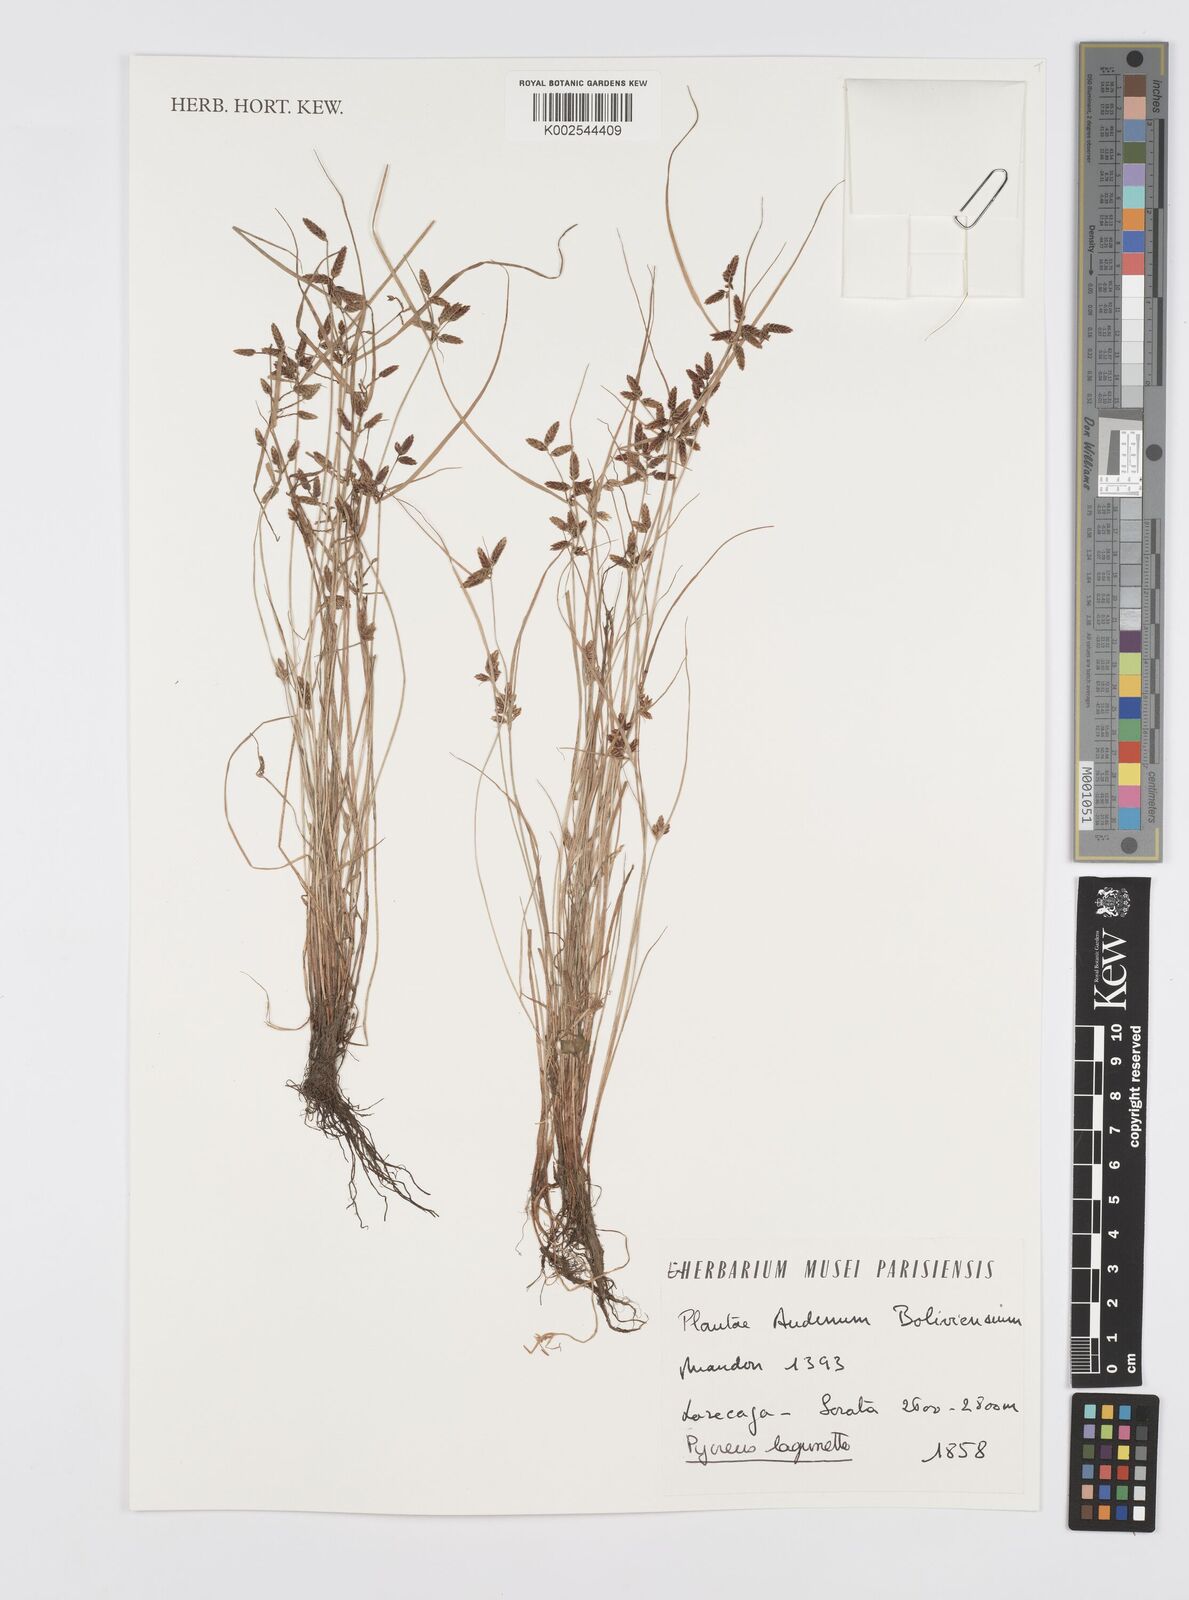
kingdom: Plantae
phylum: Tracheophyta
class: Liliopsida
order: Poales
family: Cyperaceae
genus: Cyperus
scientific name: Cyperus bipartitus
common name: Brook flatsedge
